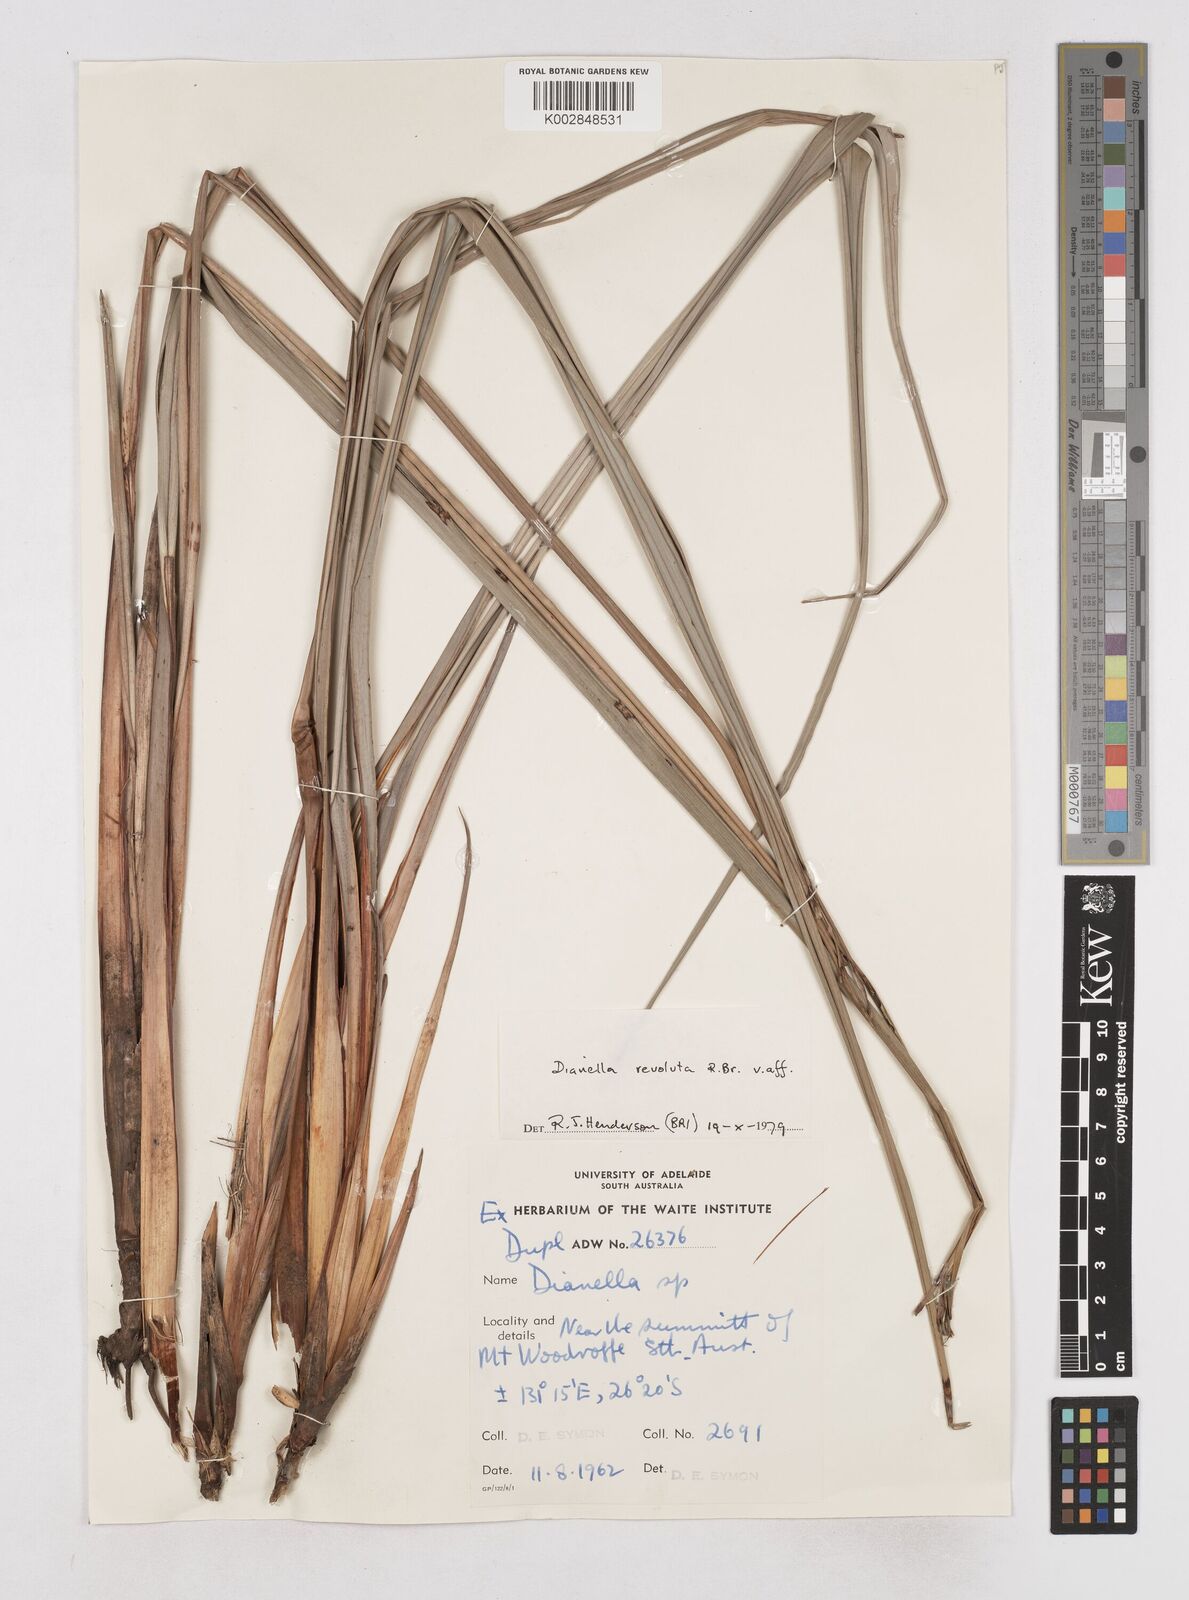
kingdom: Plantae
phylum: Tracheophyta
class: Liliopsida
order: Asparagales
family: Asphodelaceae
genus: Dianella
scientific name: Dianella revoluta
